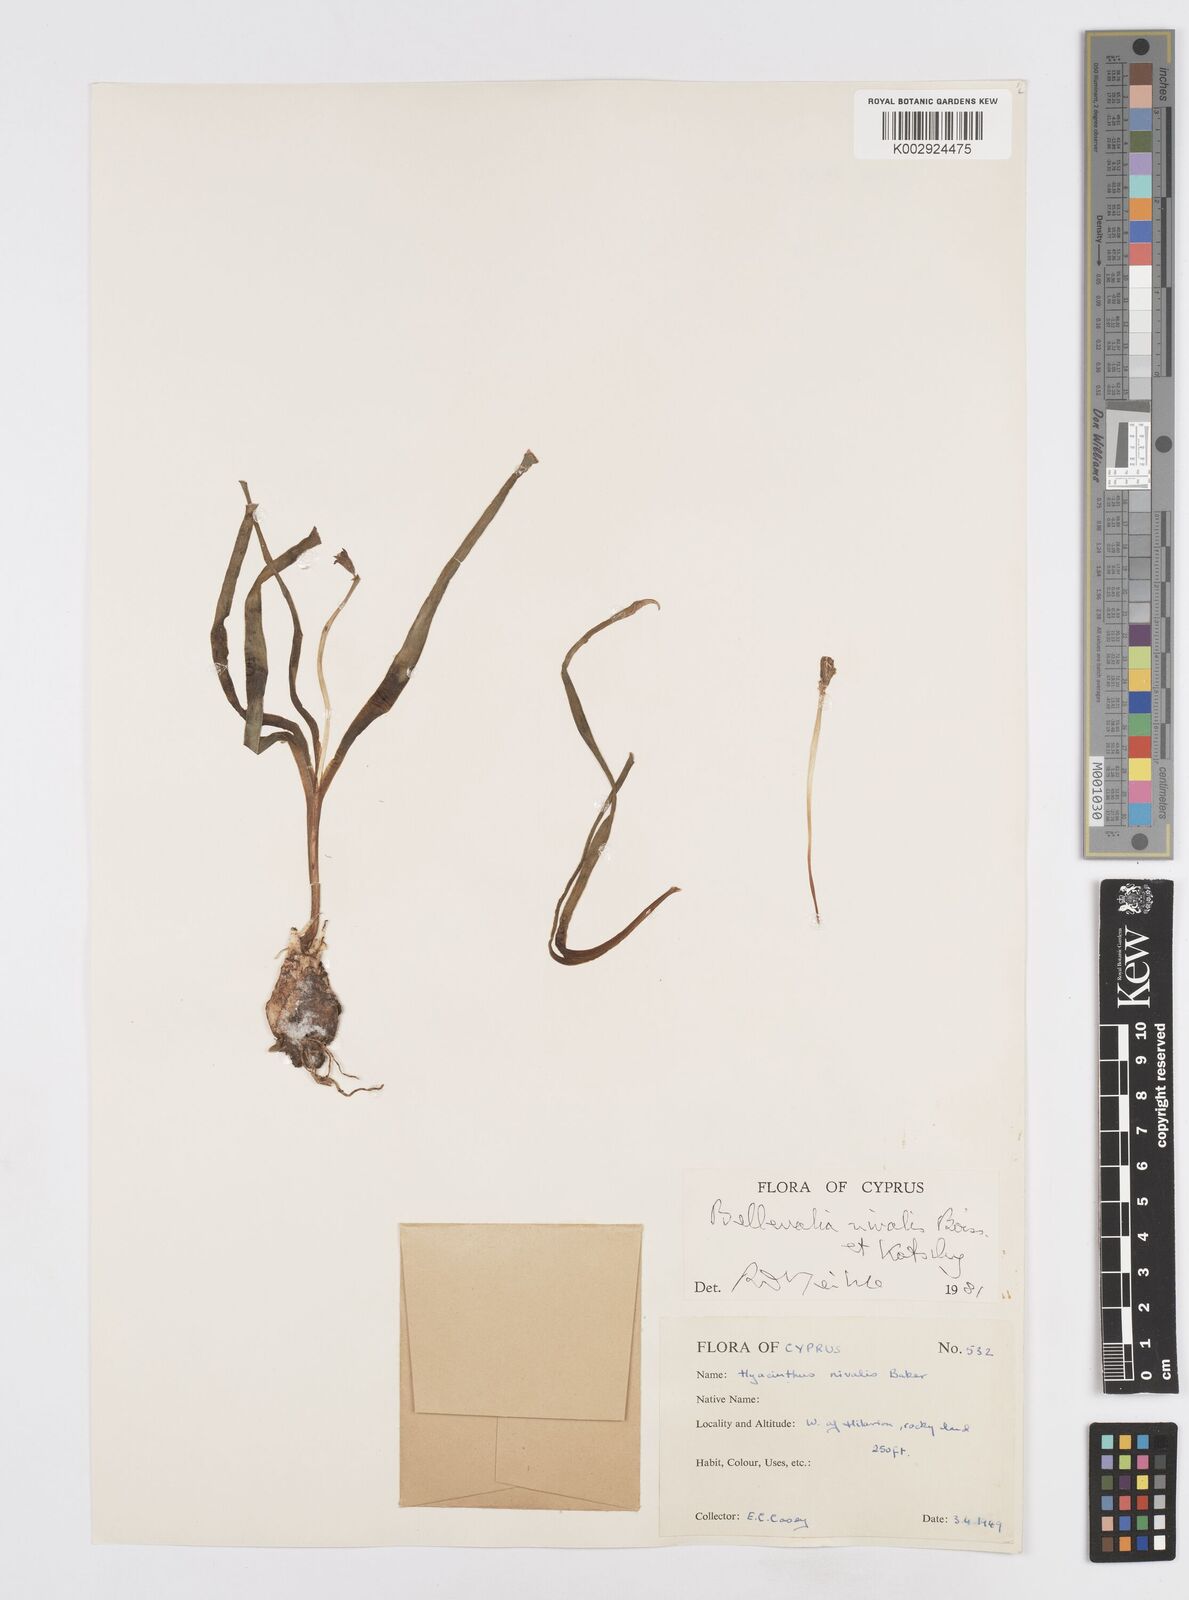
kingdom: Plantae
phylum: Tracheophyta
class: Liliopsida
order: Asparagales
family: Asparagaceae
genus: Bellevalia
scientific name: Bellevalia nivalis
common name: Snow bellevalia
